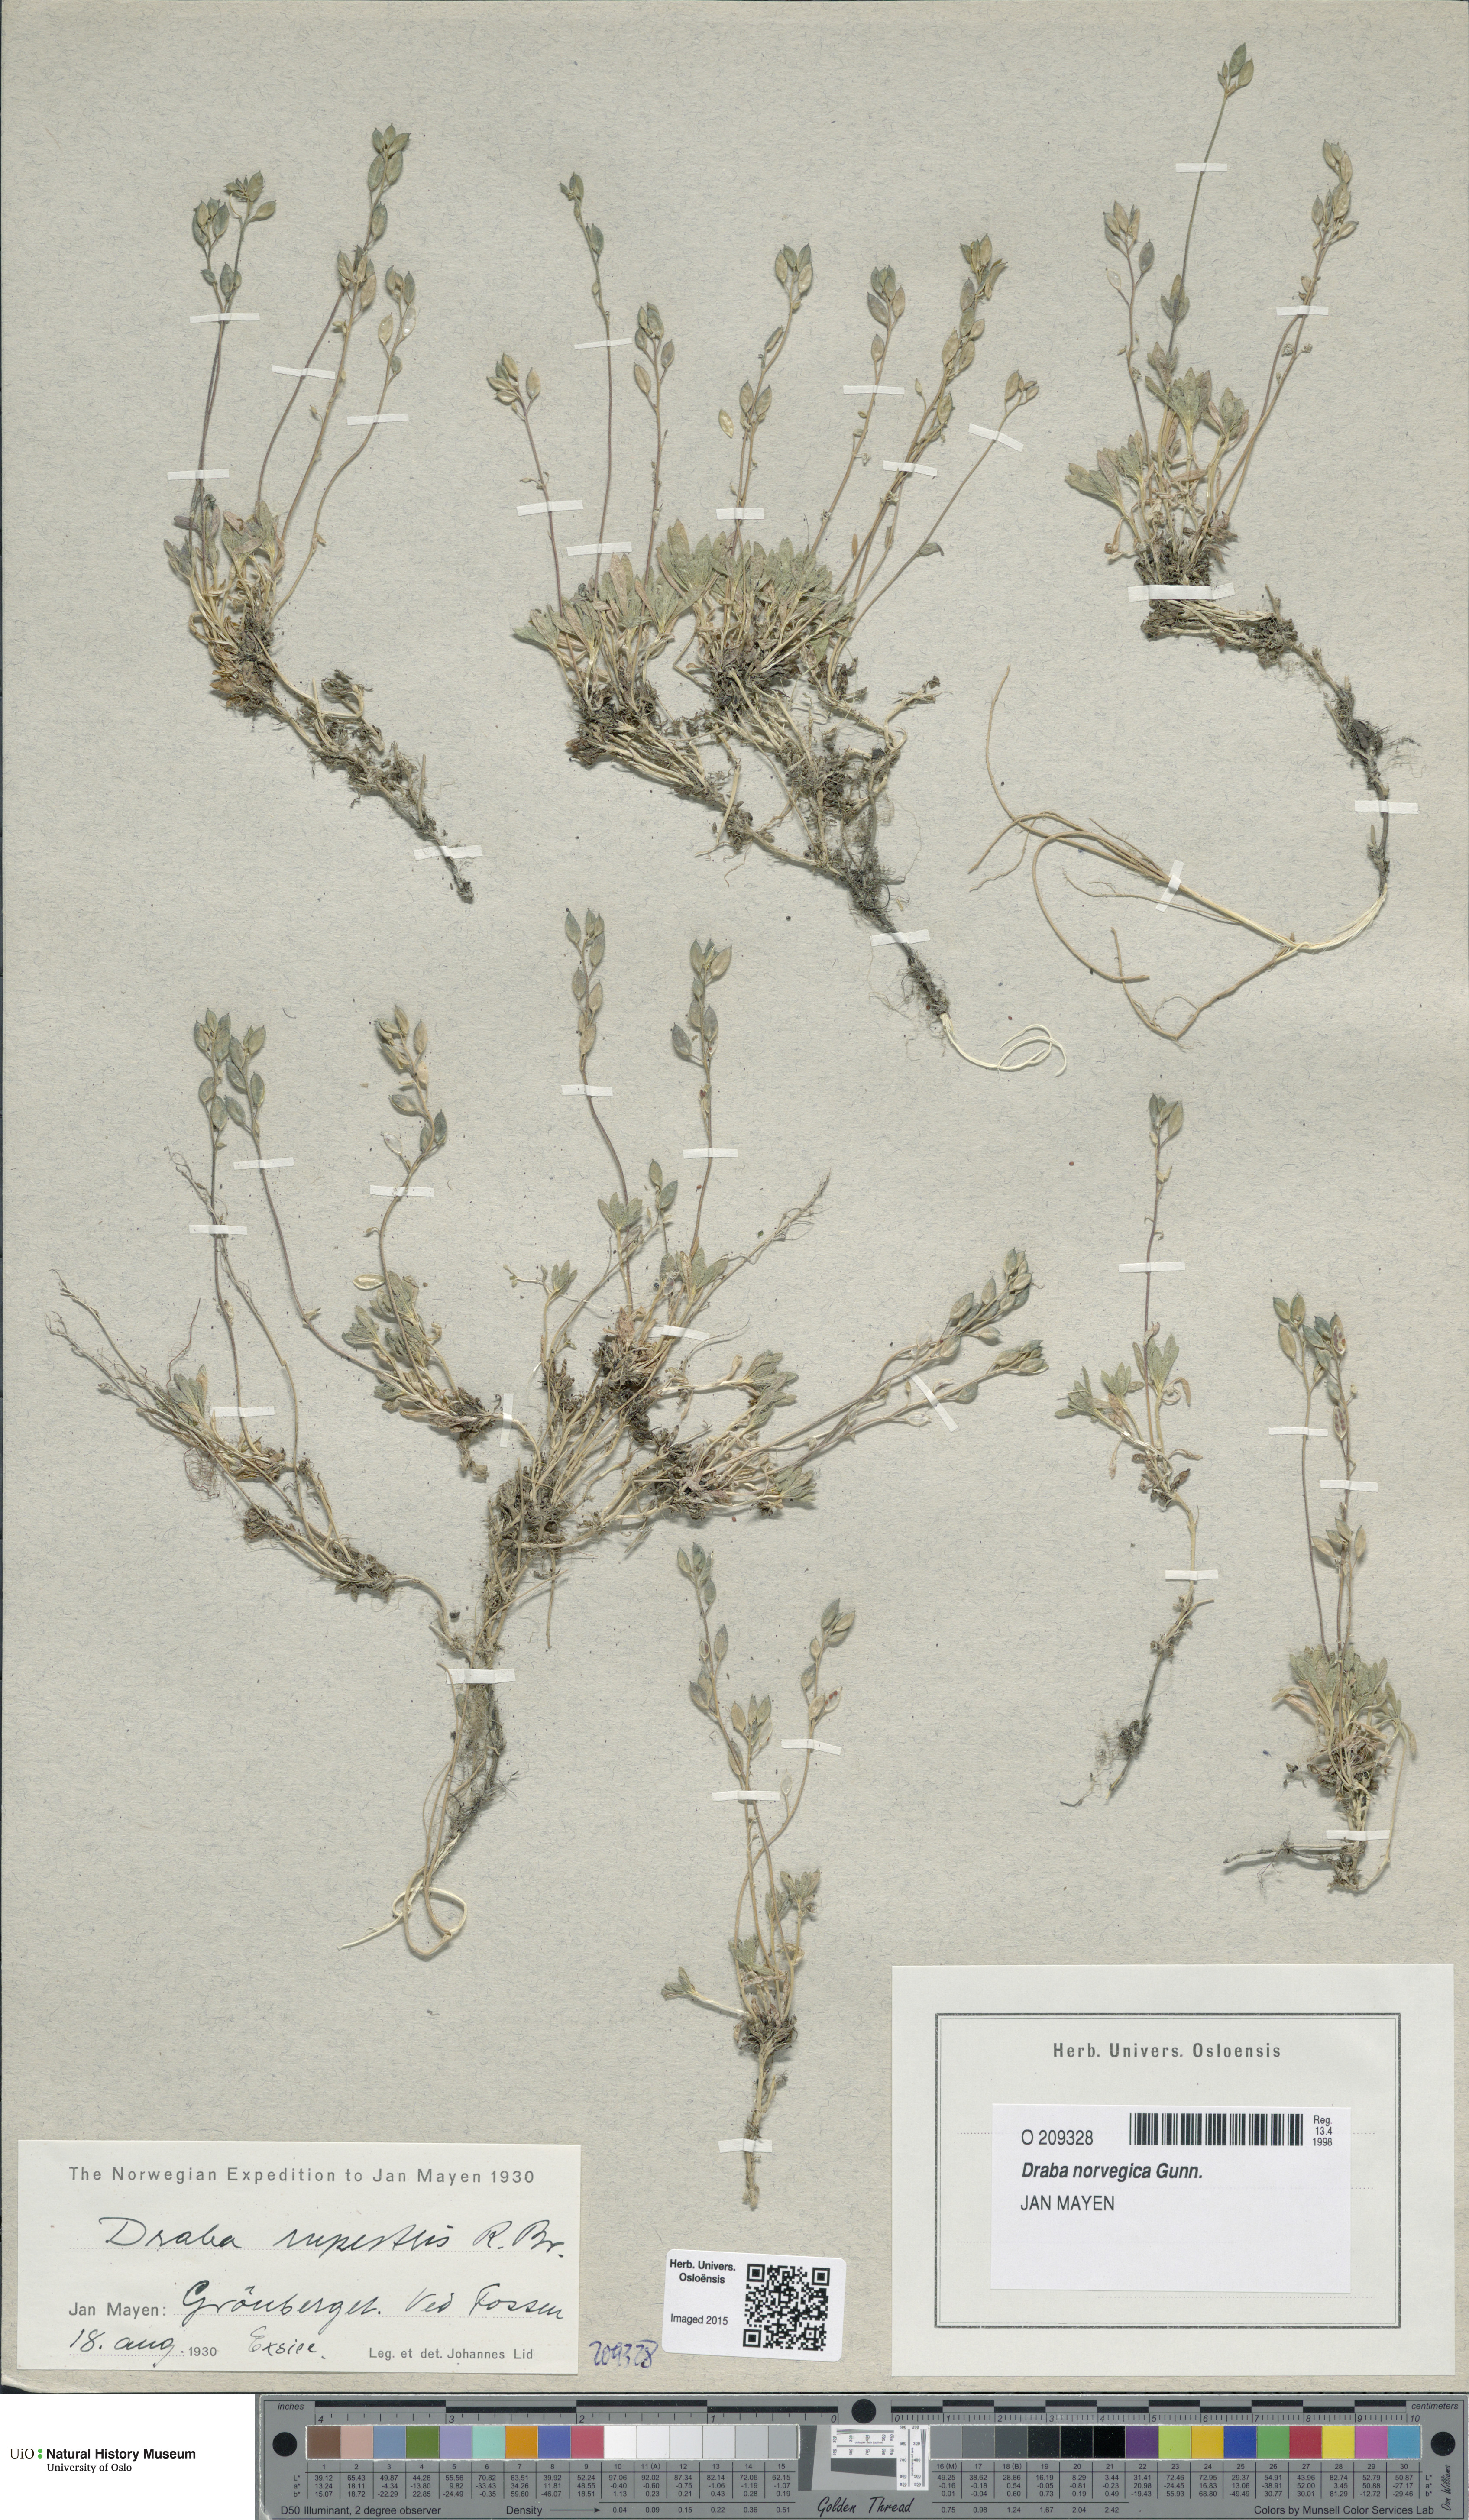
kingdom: Plantae
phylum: Tracheophyta
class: Magnoliopsida
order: Brassicales
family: Brassicaceae
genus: Draba
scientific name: Draba norvegica
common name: Rock whitlowgrass
